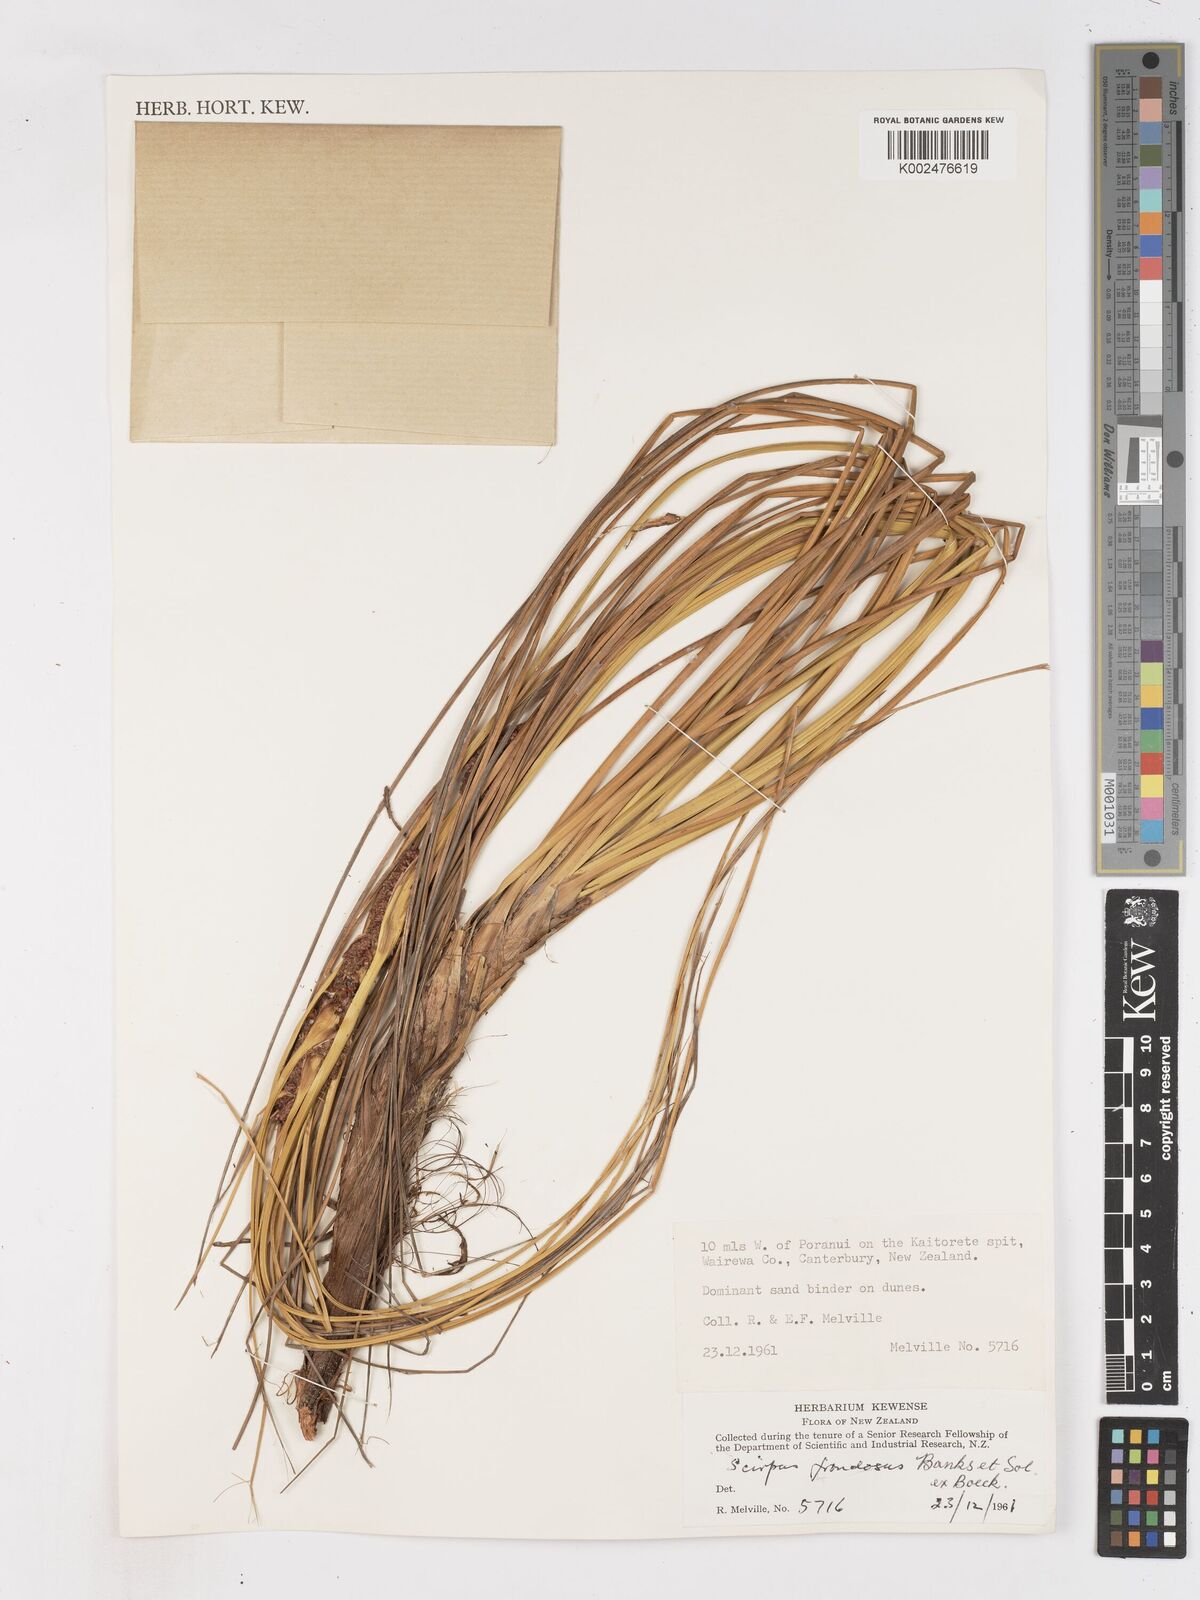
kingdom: Plantae
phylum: Tracheophyta
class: Liliopsida
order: Poales
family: Cyperaceae
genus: Ficinia
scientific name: Ficinia
